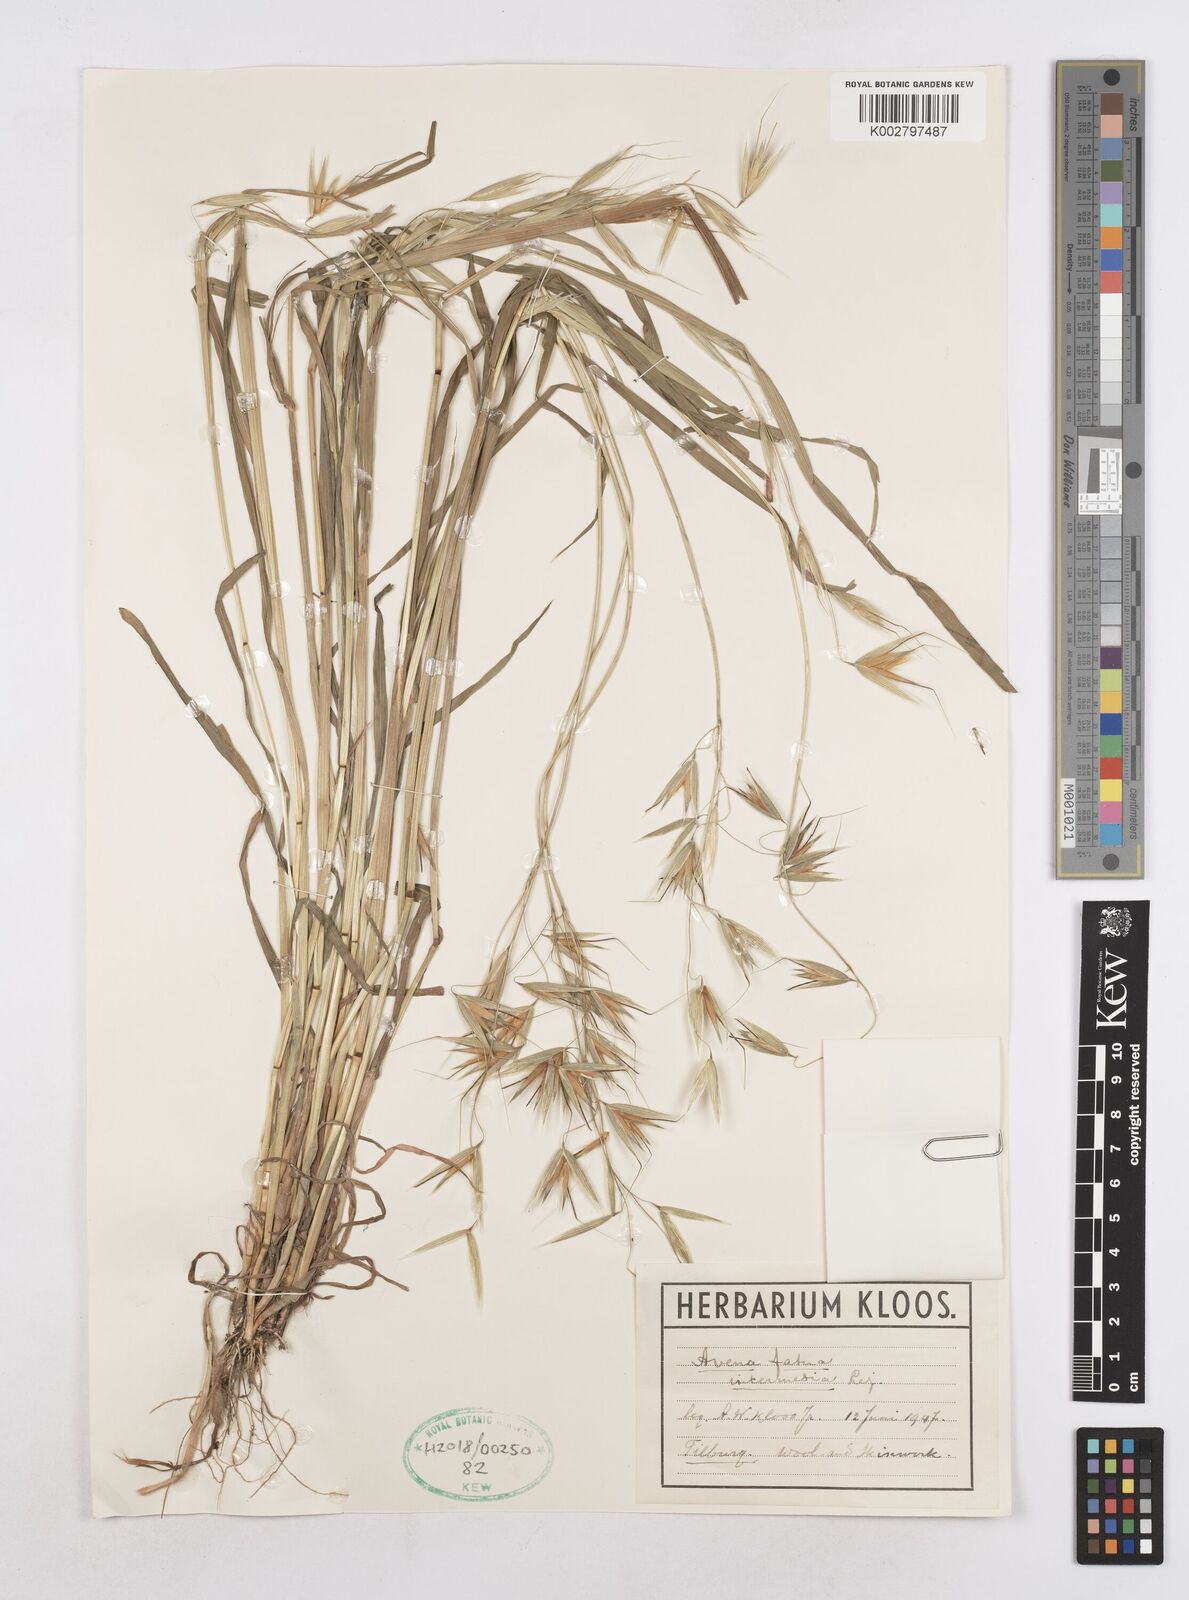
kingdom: Plantae
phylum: Tracheophyta
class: Liliopsida
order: Poales
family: Poaceae
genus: Avena
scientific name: Avena fatua
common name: Wild oat
